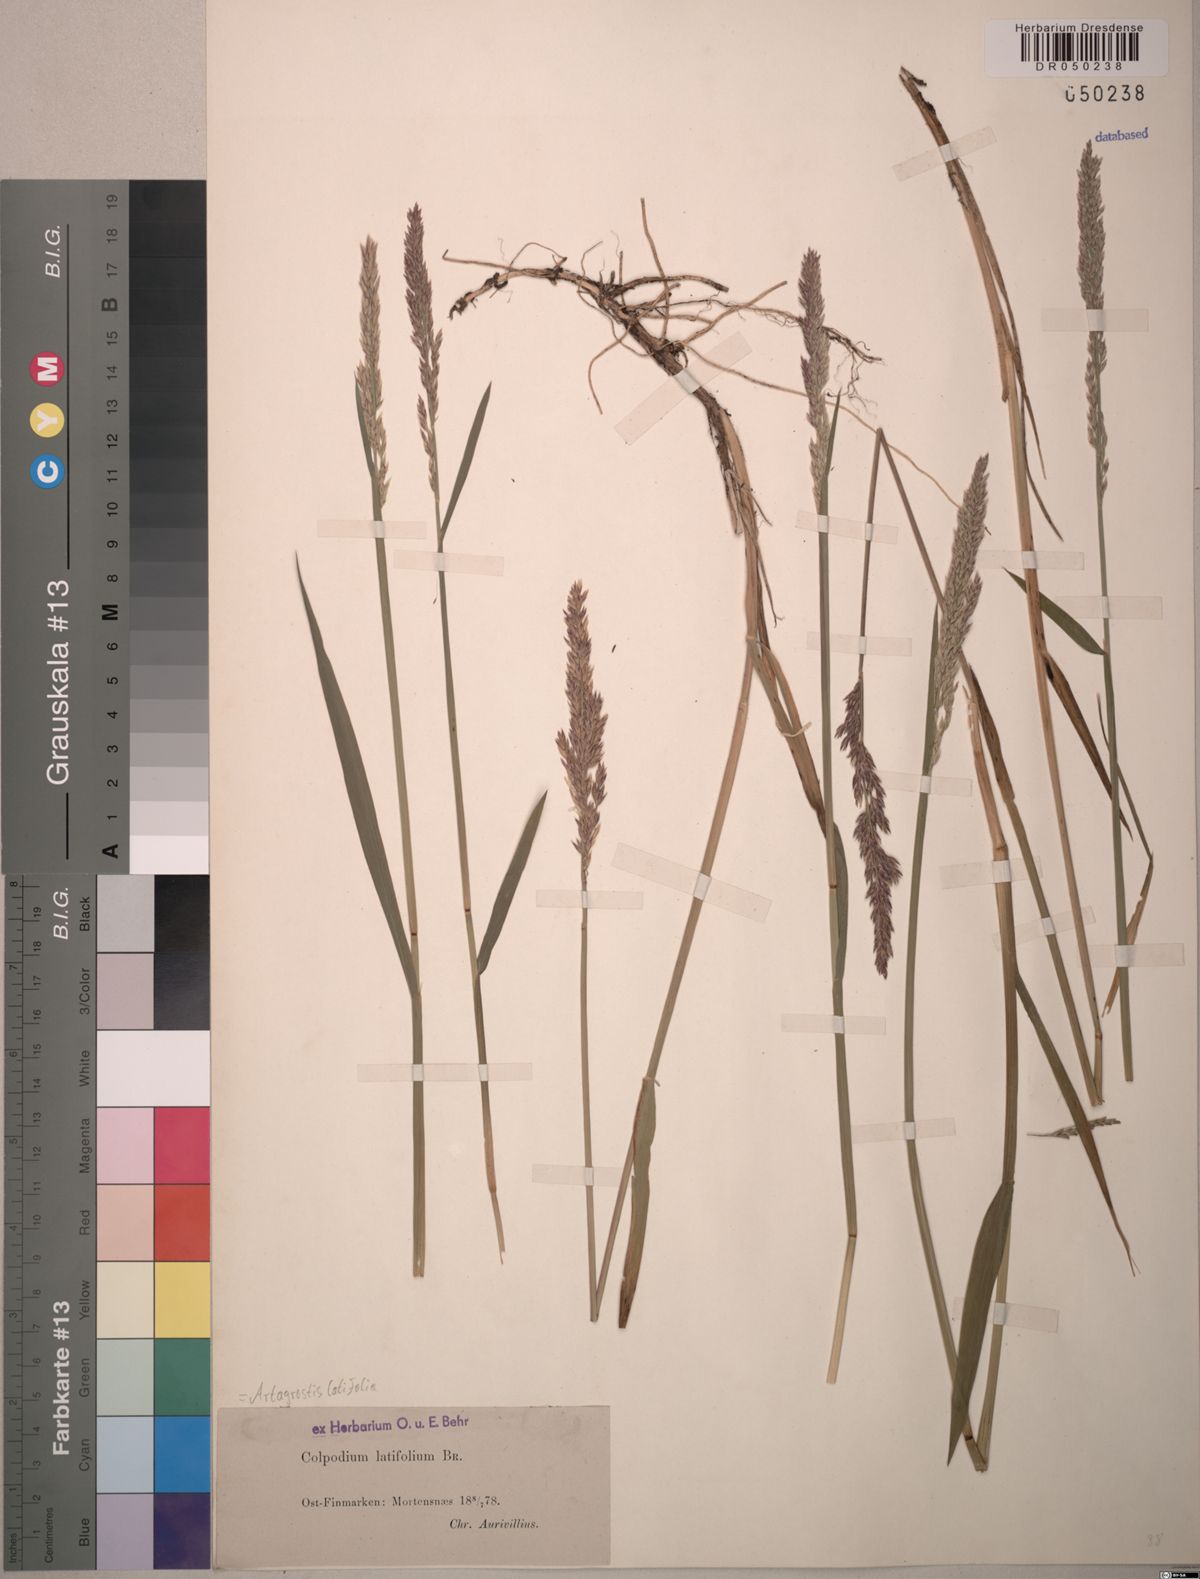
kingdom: Plantae
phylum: Tracheophyta
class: Liliopsida
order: Poales
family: Poaceae
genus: Arctagrostis
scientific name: Arctagrostis latifolia
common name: Arctic grass
